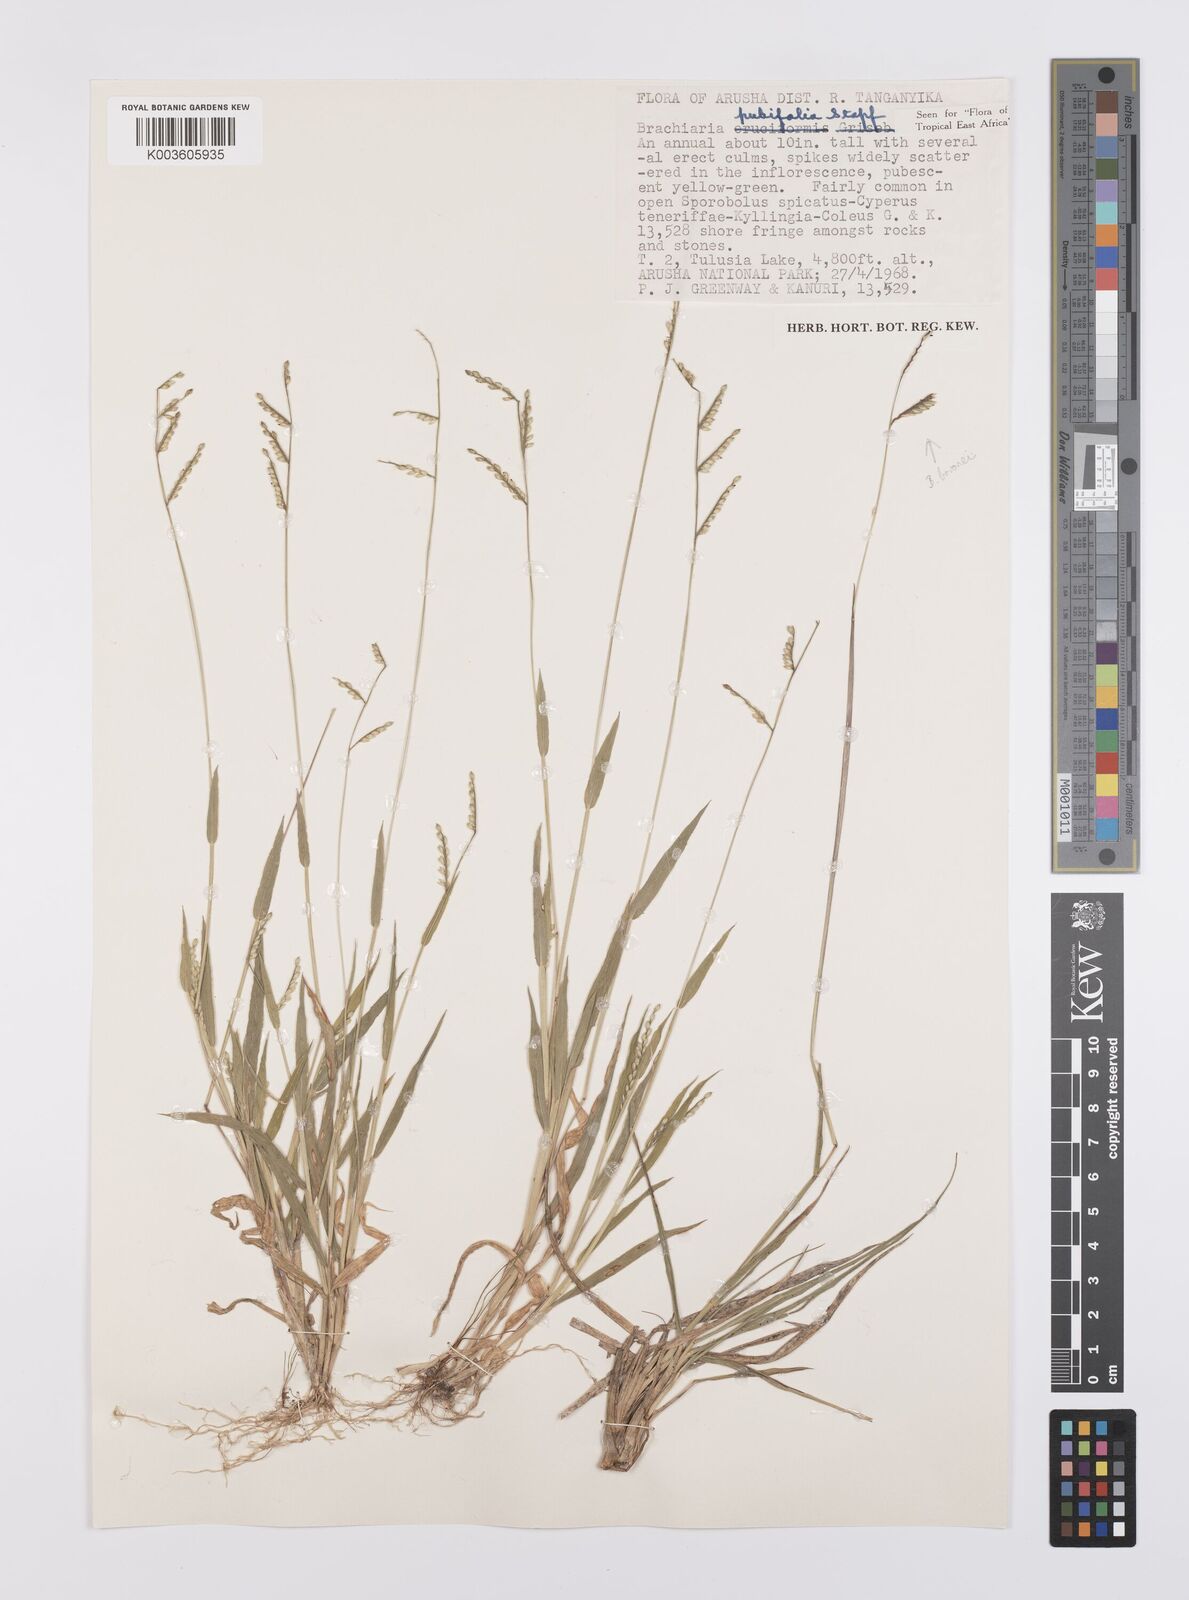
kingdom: Plantae
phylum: Tracheophyta
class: Liliopsida
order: Poales
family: Poaceae
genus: Urochloa
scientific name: Urochloa xantholeuca
